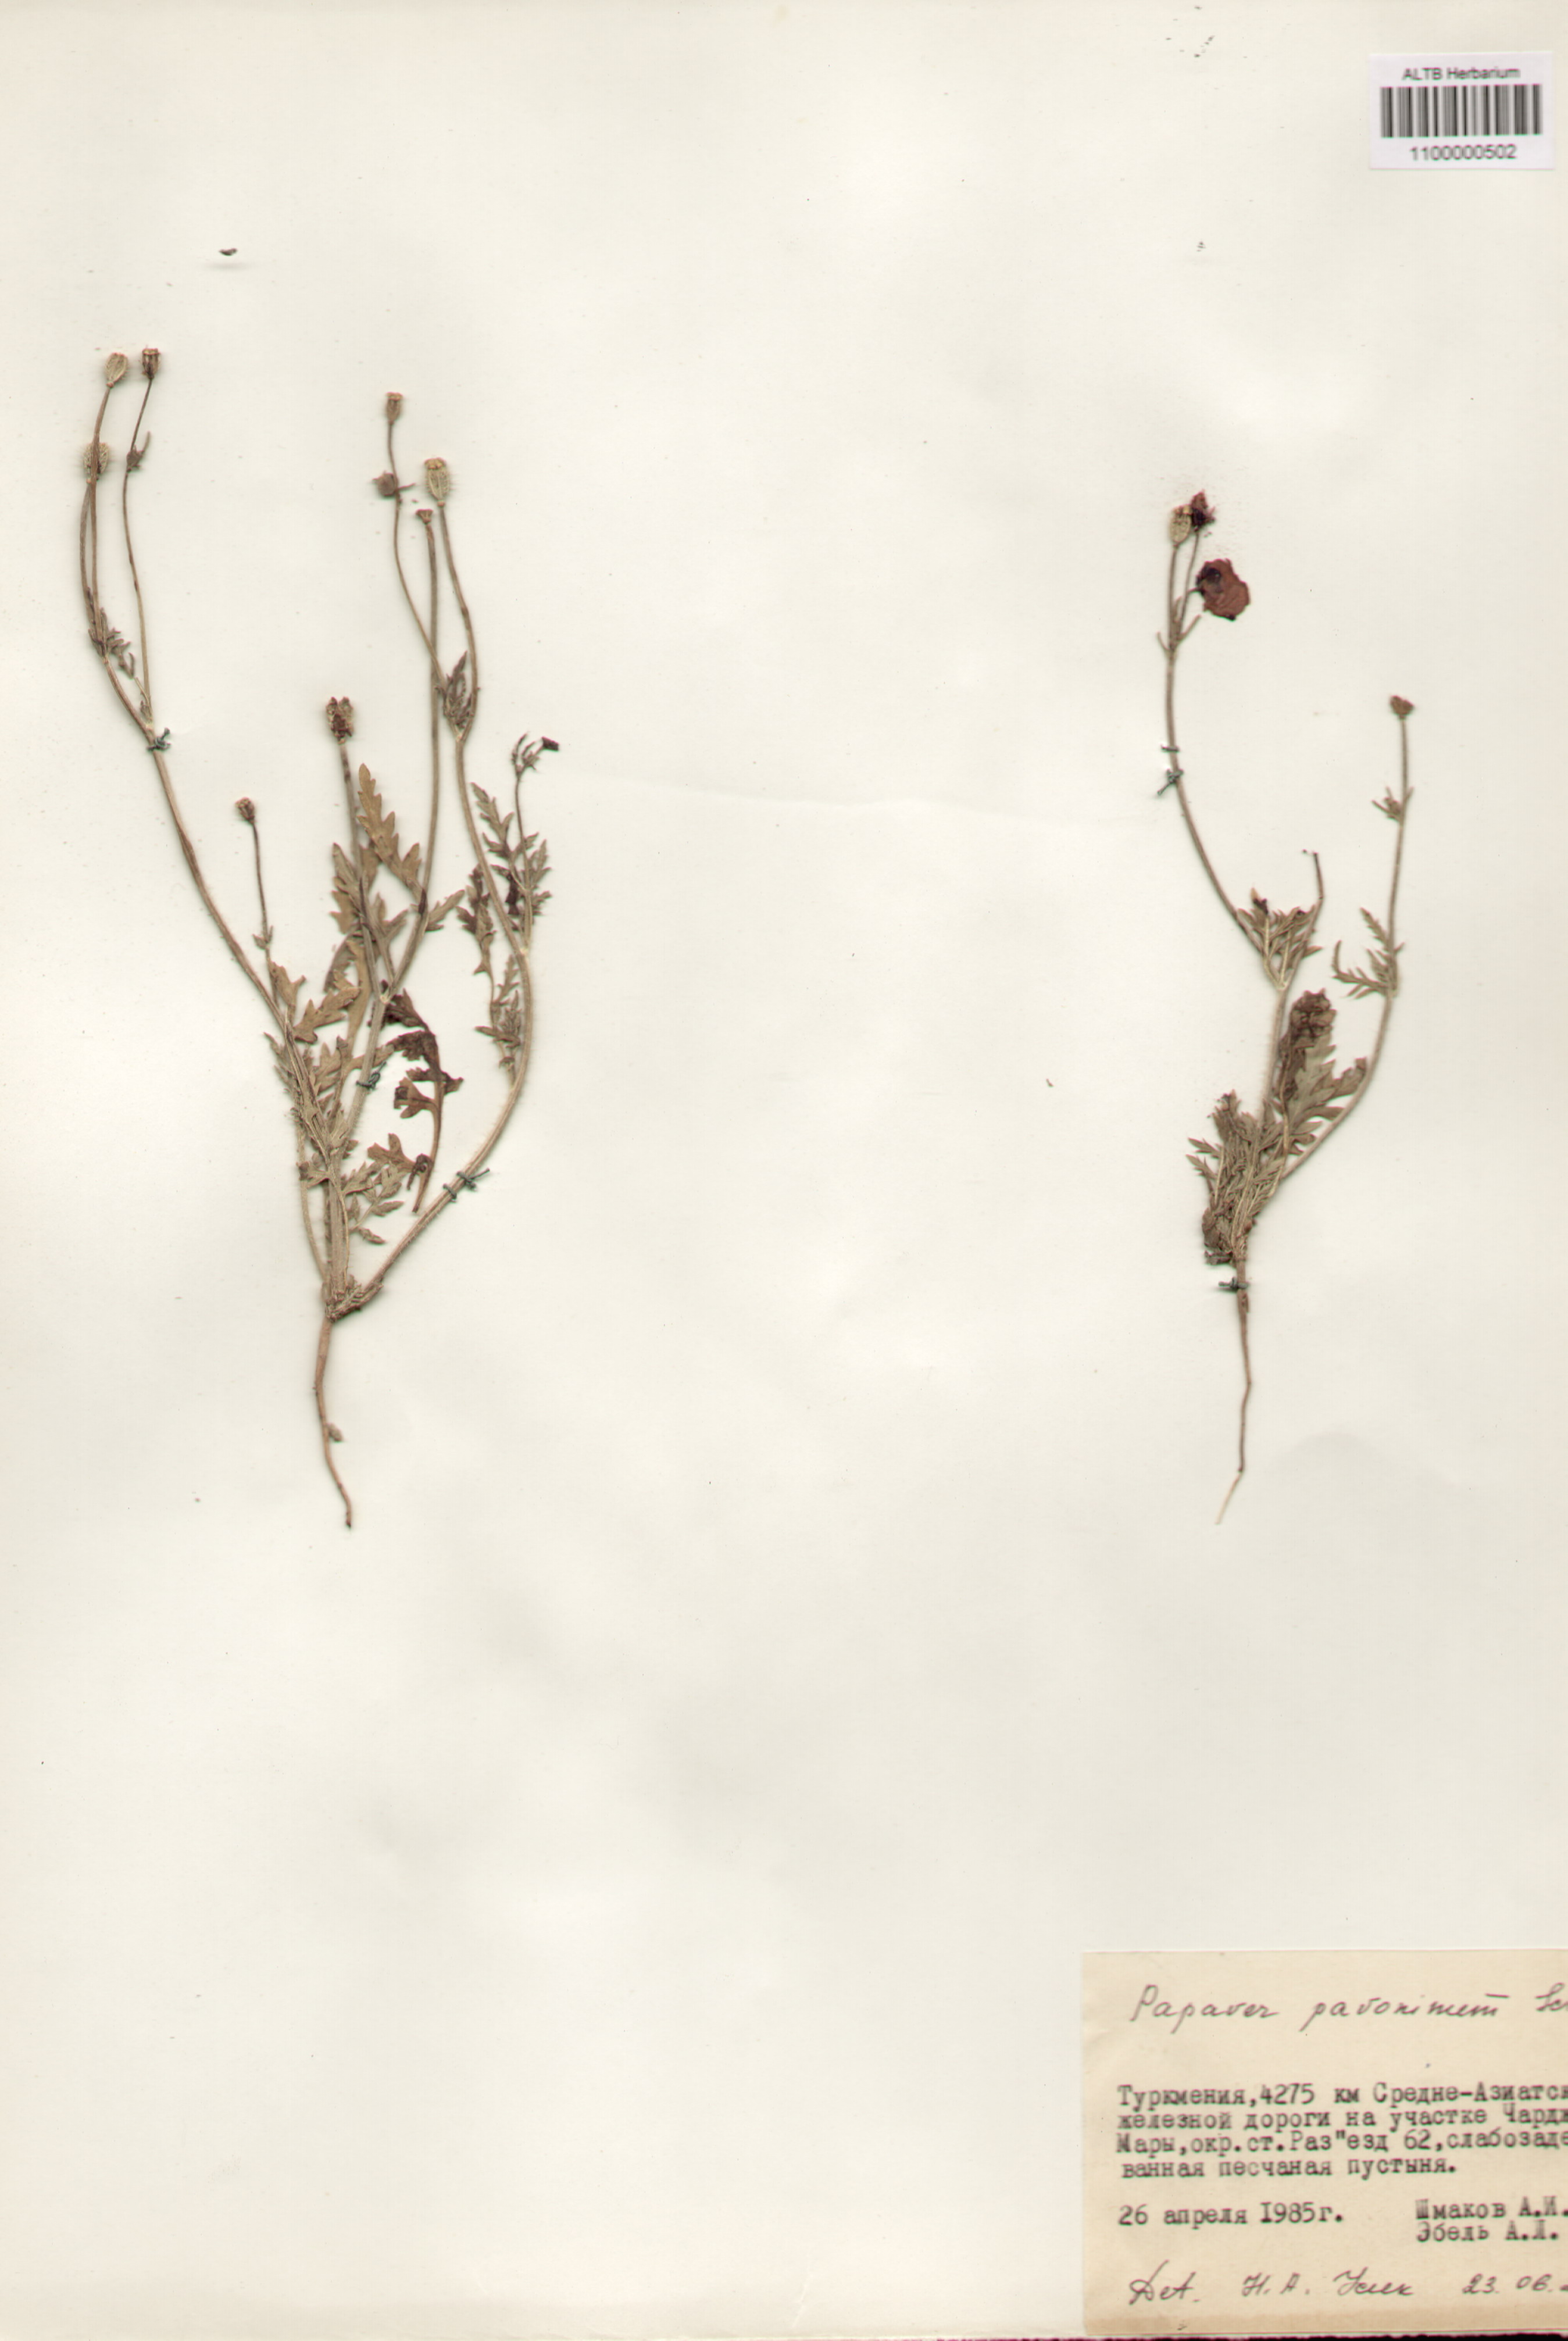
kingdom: Plantae
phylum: Tracheophyta
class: Magnoliopsida
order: Ranunculales
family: Papaveraceae
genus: Papaver
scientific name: Papaver pavoninum
